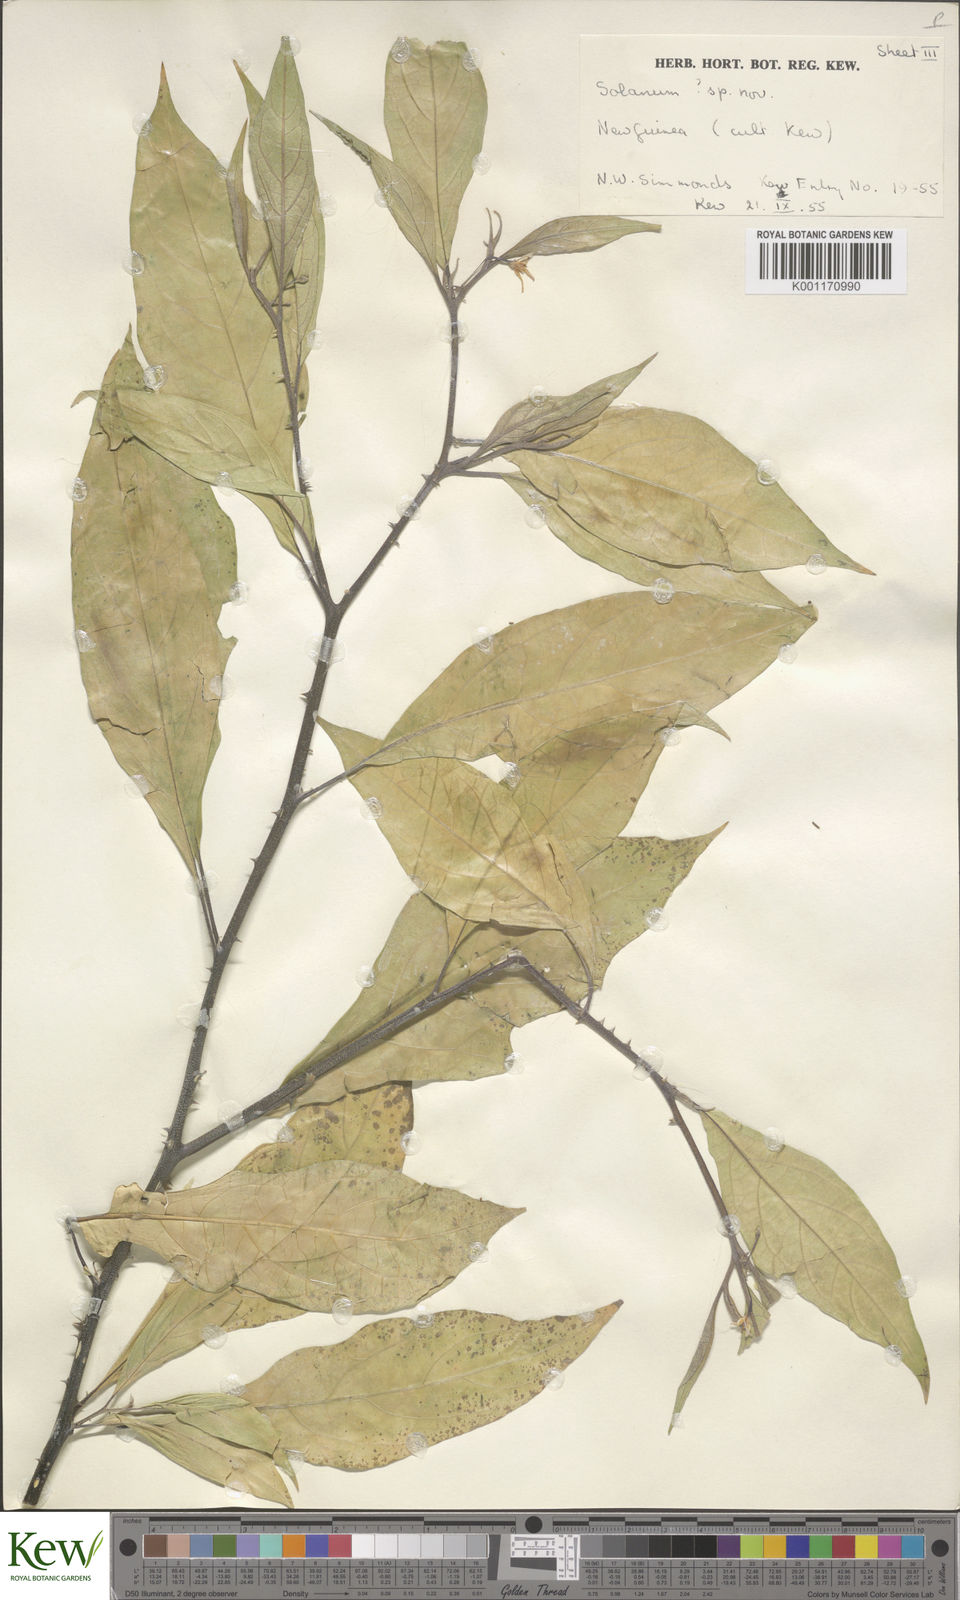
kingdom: Plantae
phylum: Tracheophyta
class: Magnoliopsida
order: Solanales
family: Solanaceae
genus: Solanum
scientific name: Solanum
